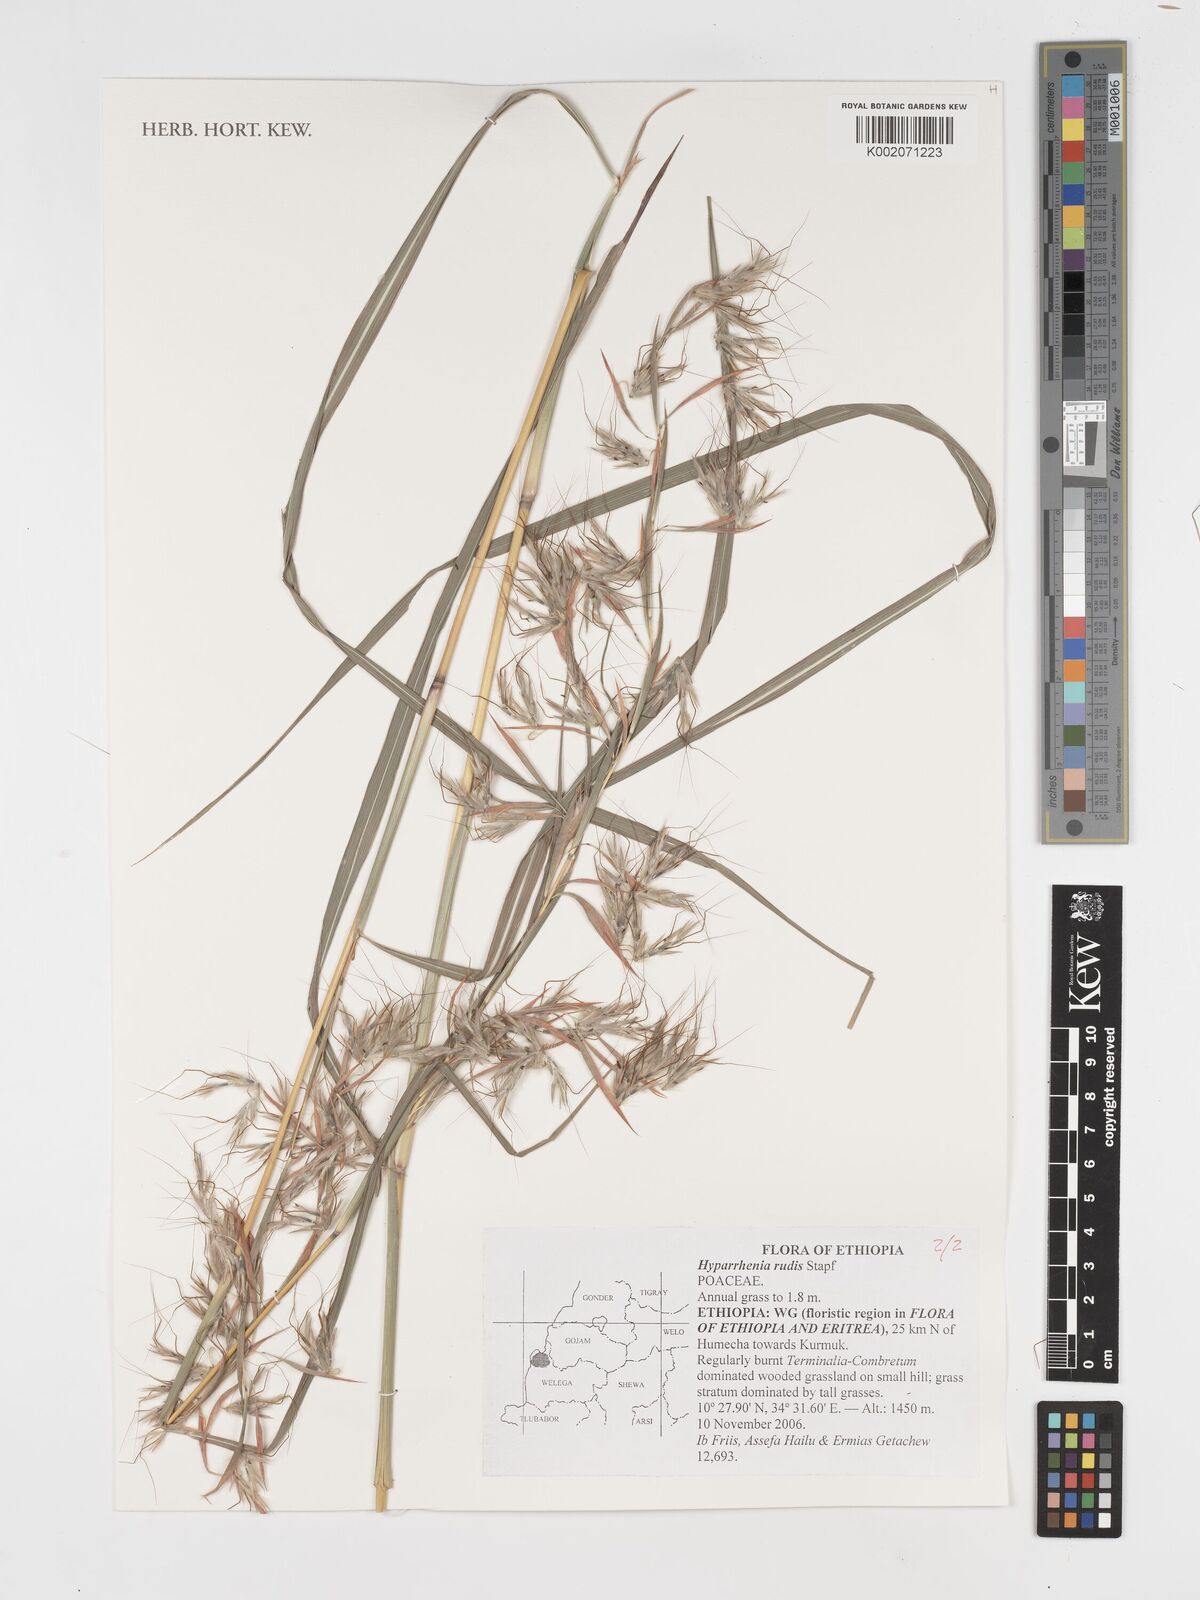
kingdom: Plantae
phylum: Tracheophyta
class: Liliopsida
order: Poales
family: Poaceae
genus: Hyparrhenia
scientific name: Hyparrhenia rudis
